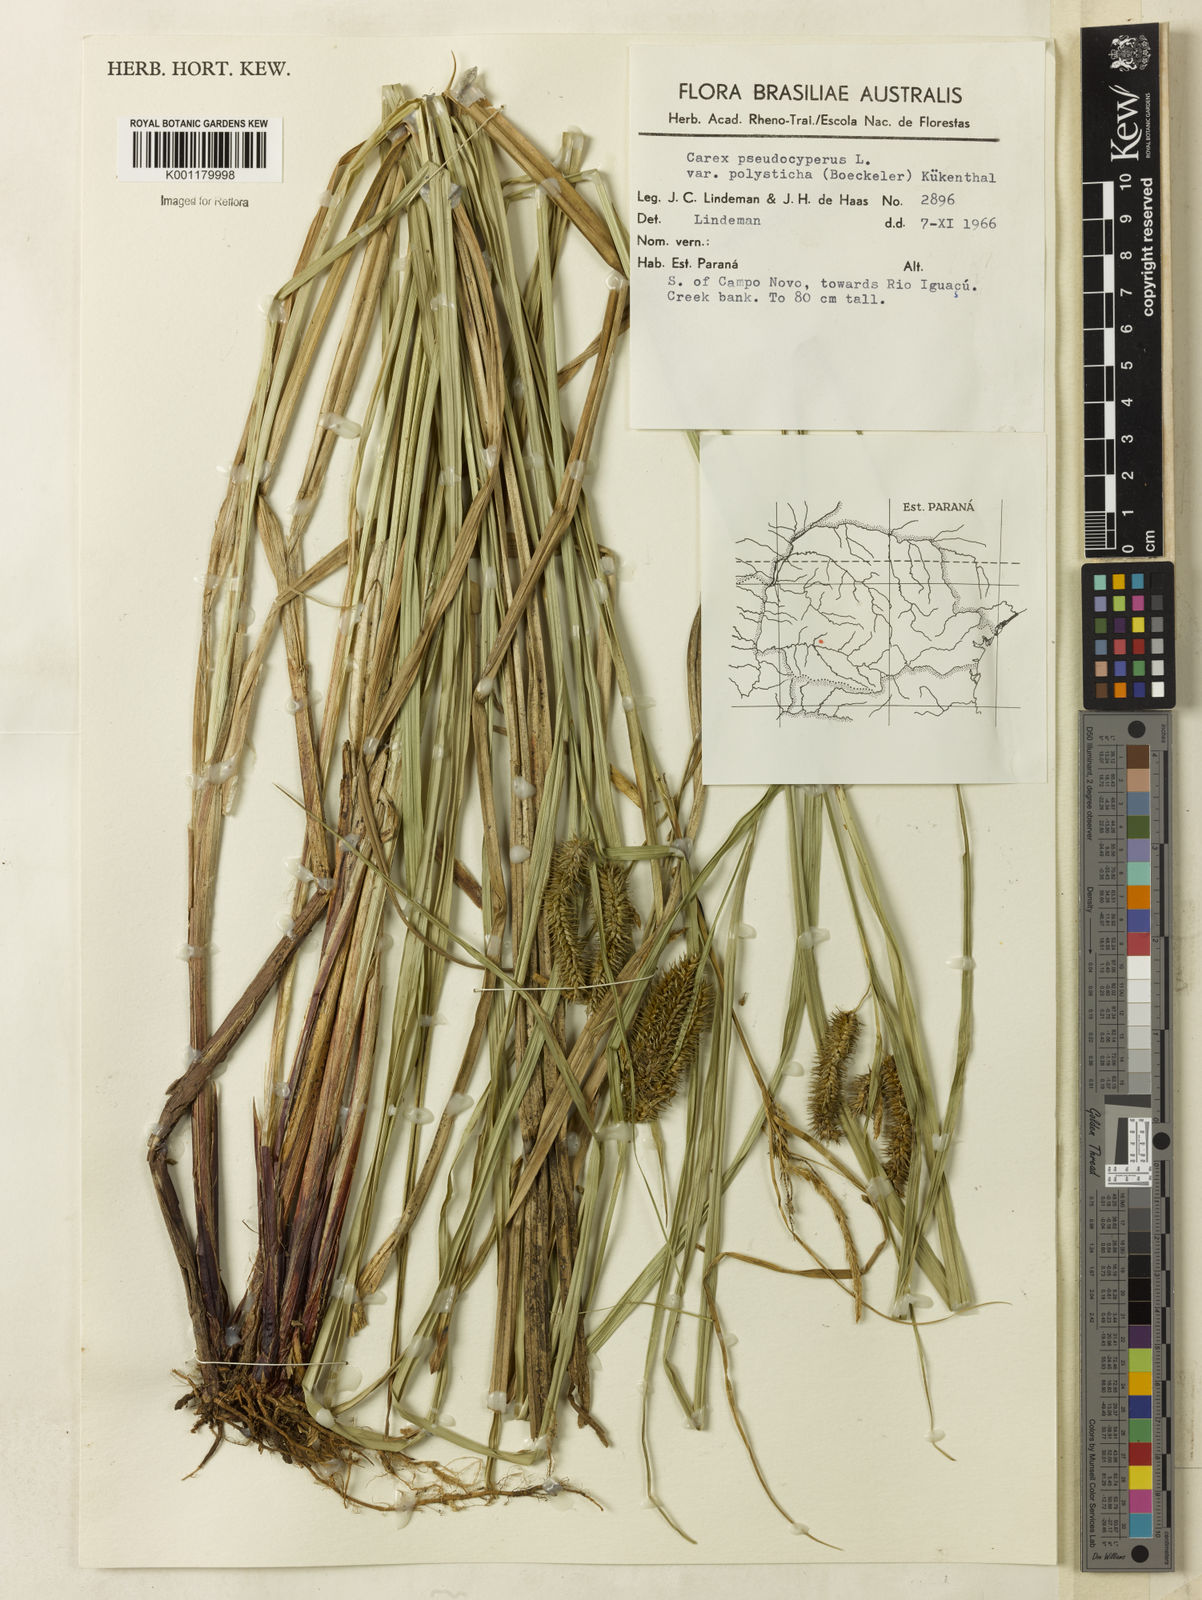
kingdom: Plantae
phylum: Tracheophyta
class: Liliopsida
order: Poales
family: Cyperaceae
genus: Carex
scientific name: Carex polysticha
